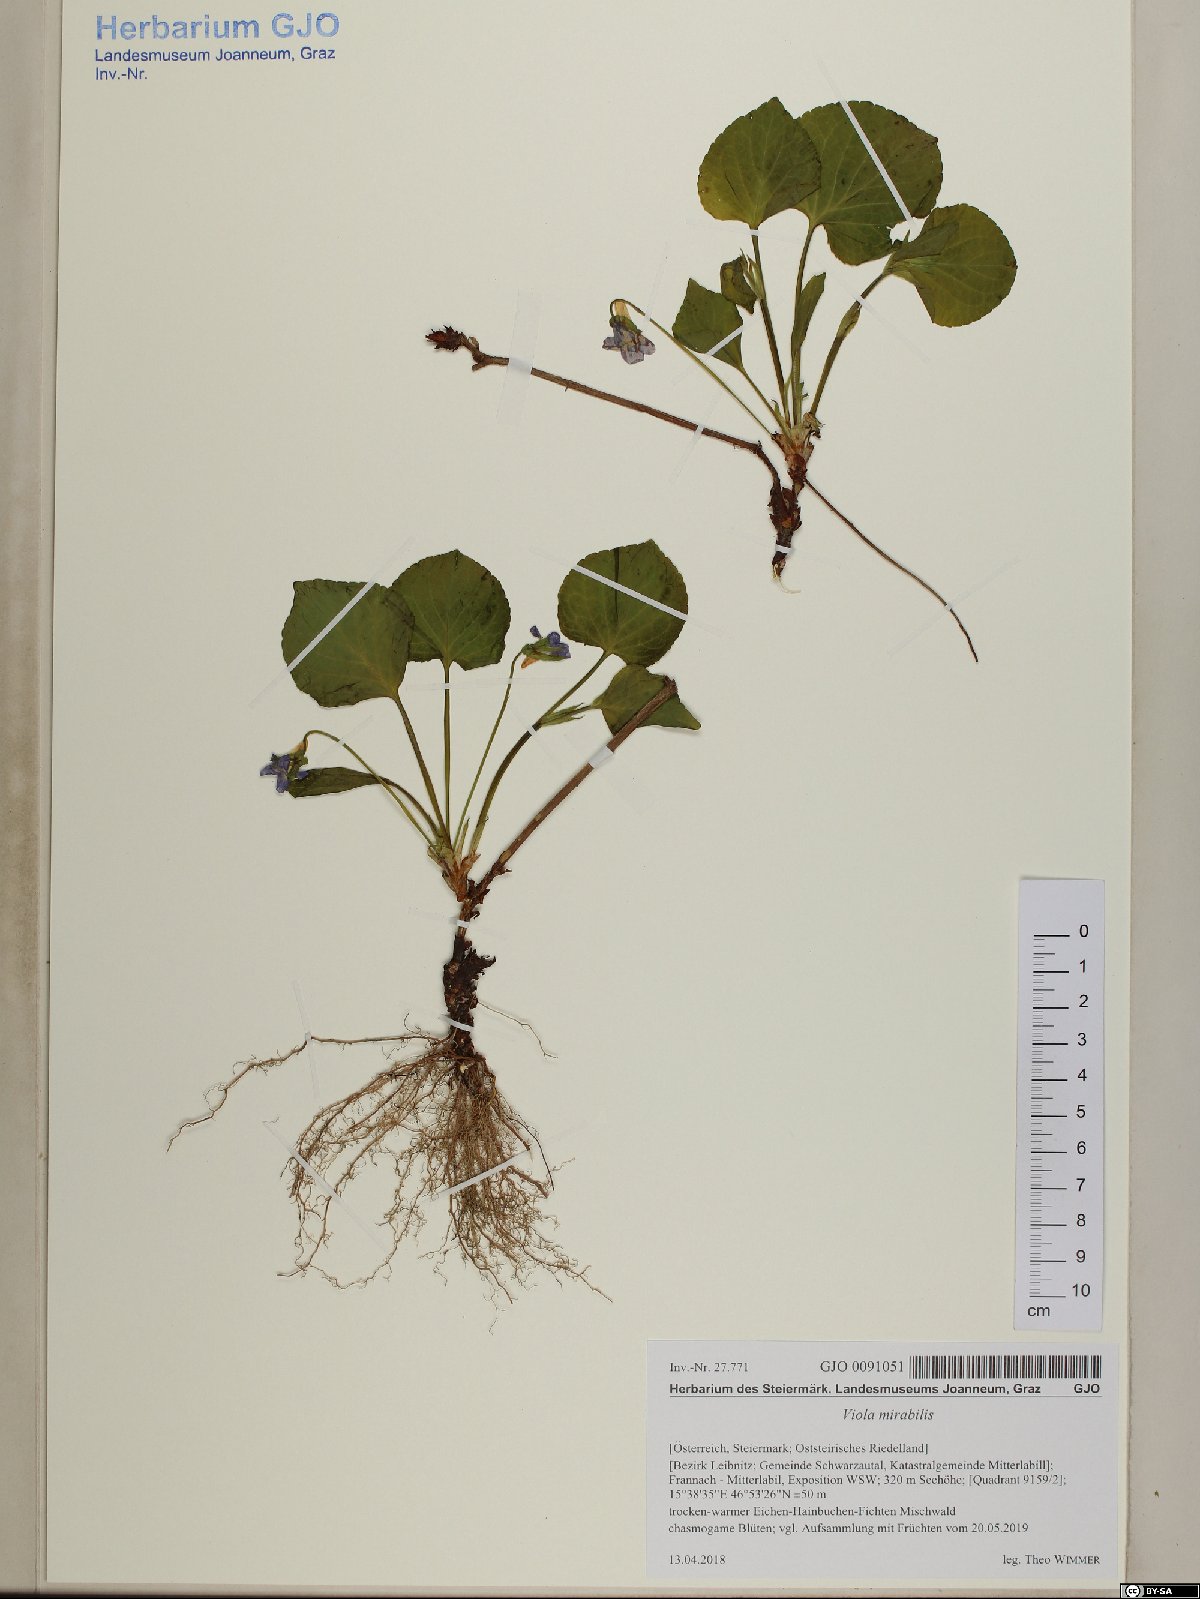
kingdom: Plantae
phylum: Tracheophyta
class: Magnoliopsida
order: Malpighiales
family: Violaceae
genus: Viola
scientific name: Viola mirabilis
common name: Wonder violet
